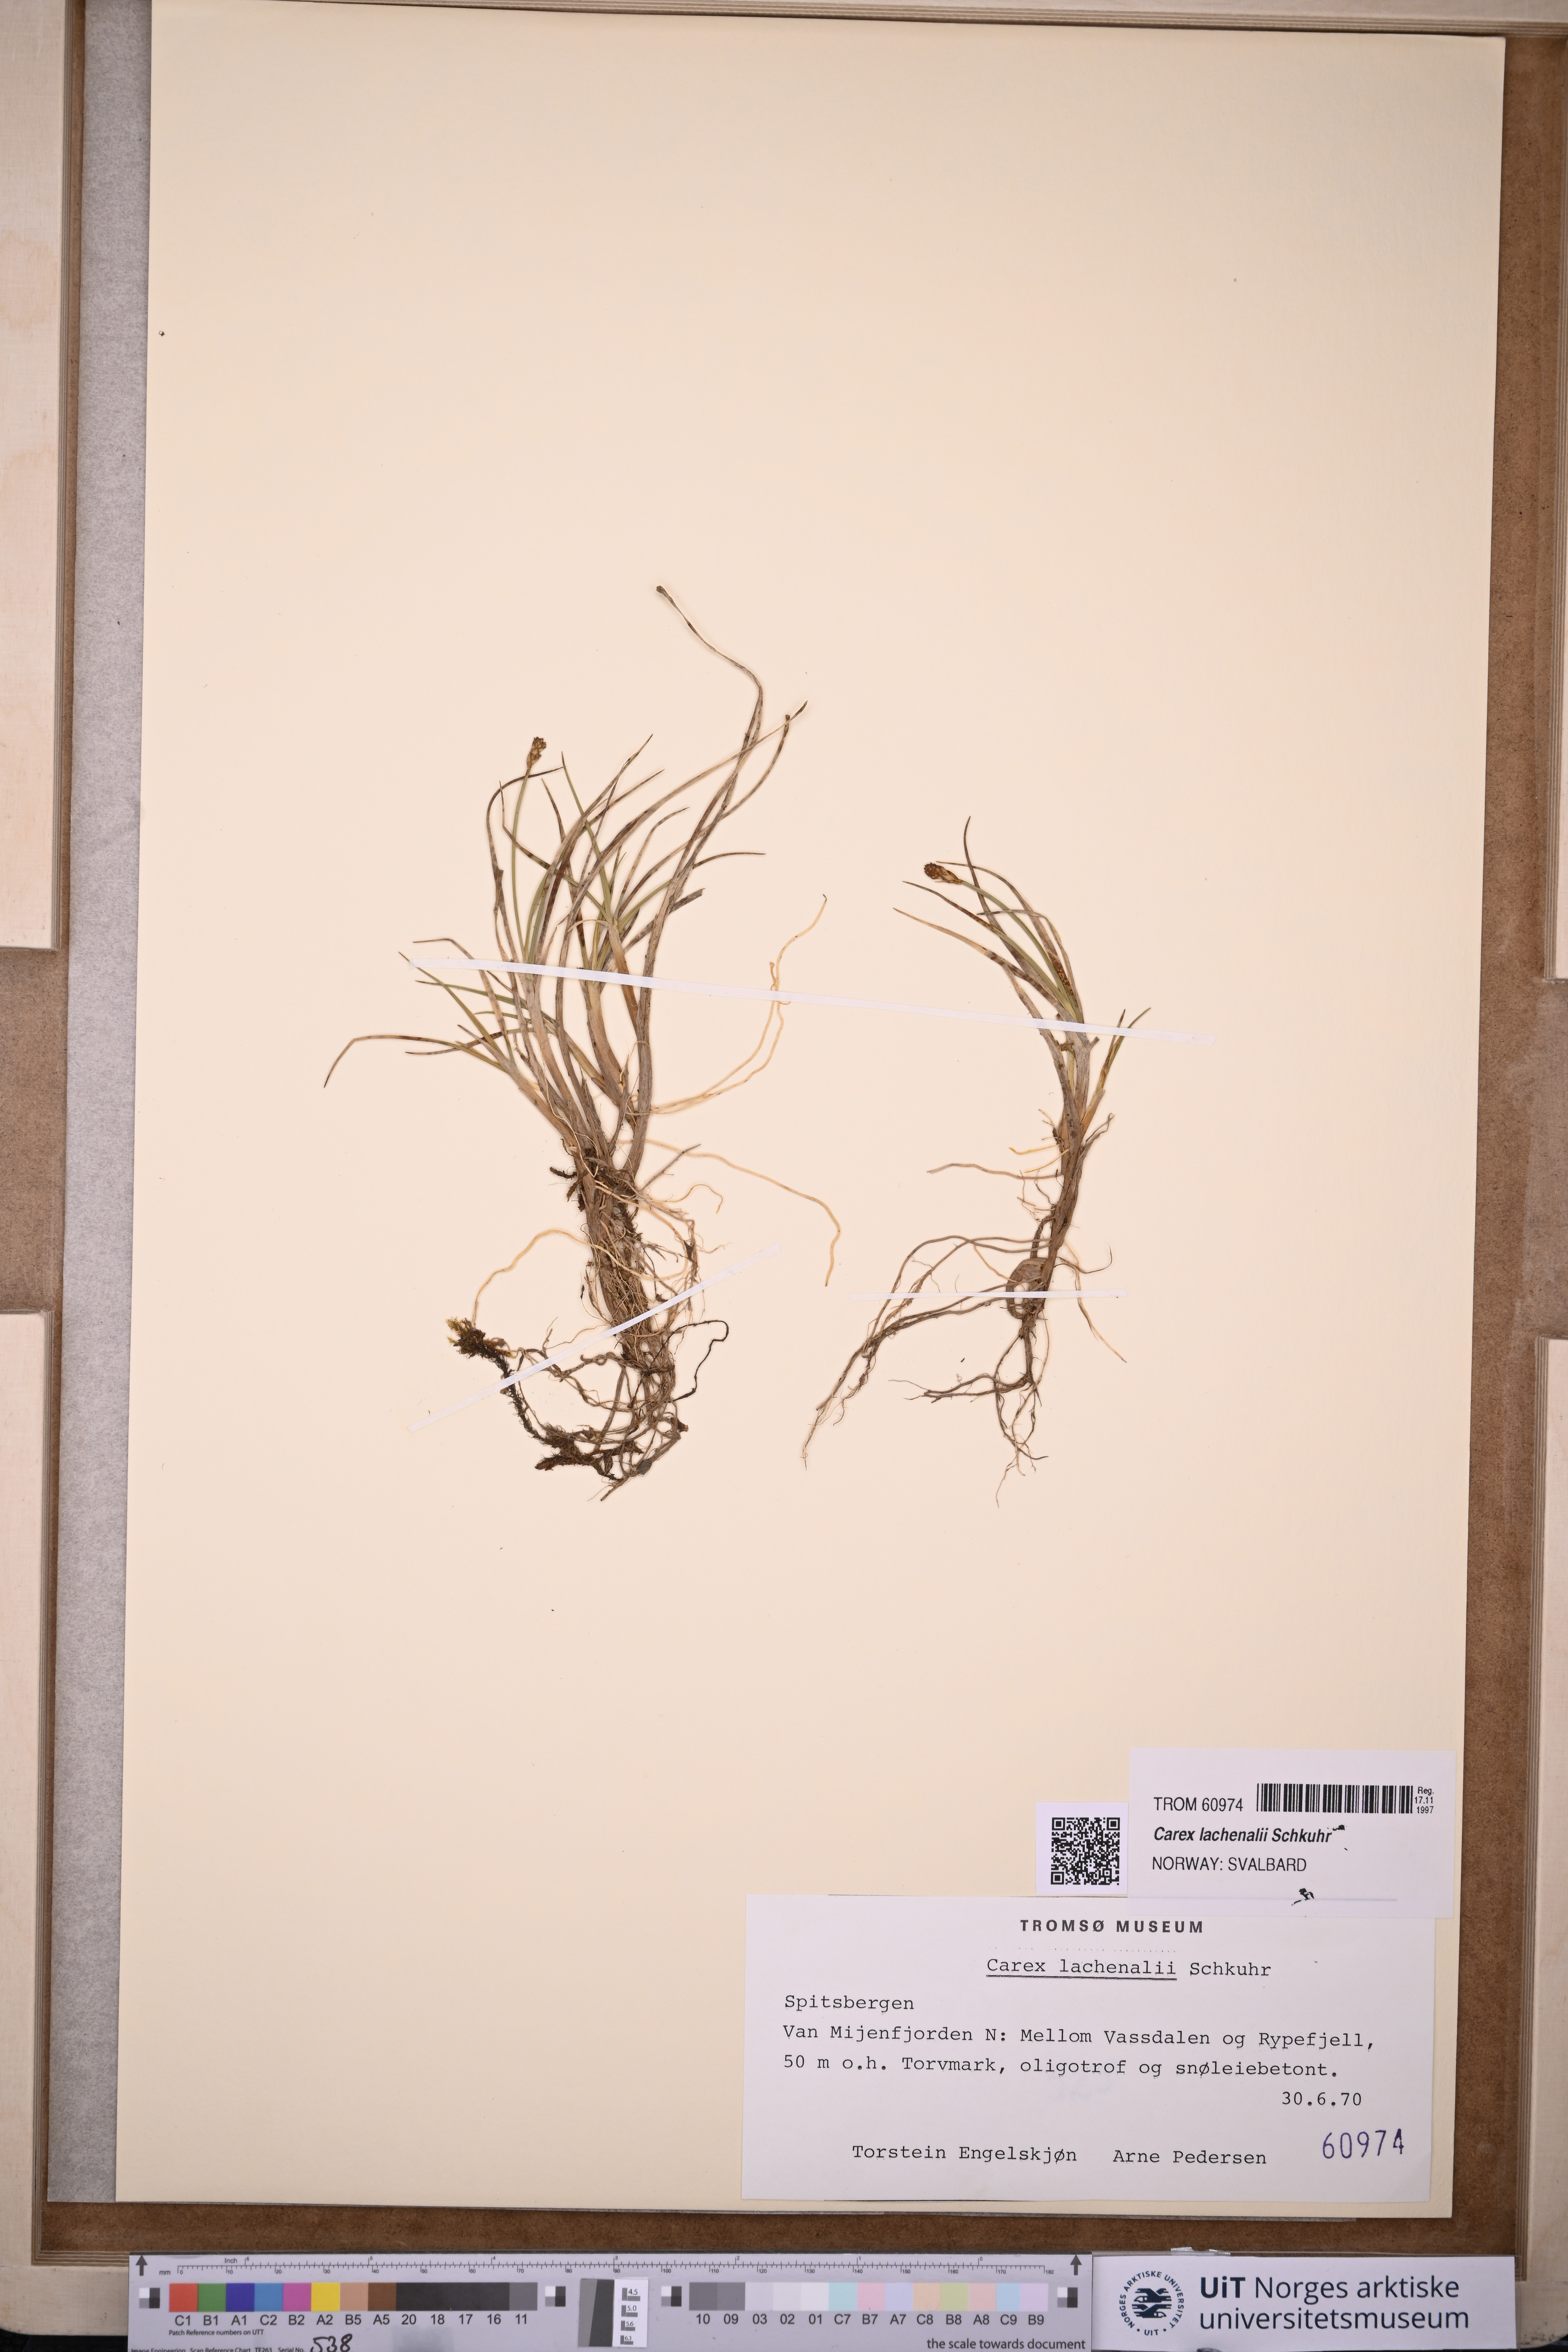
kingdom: Plantae
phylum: Tracheophyta
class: Liliopsida
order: Poales
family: Cyperaceae
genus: Carex
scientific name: Carex lachenalii
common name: Hare's-foot sedge
